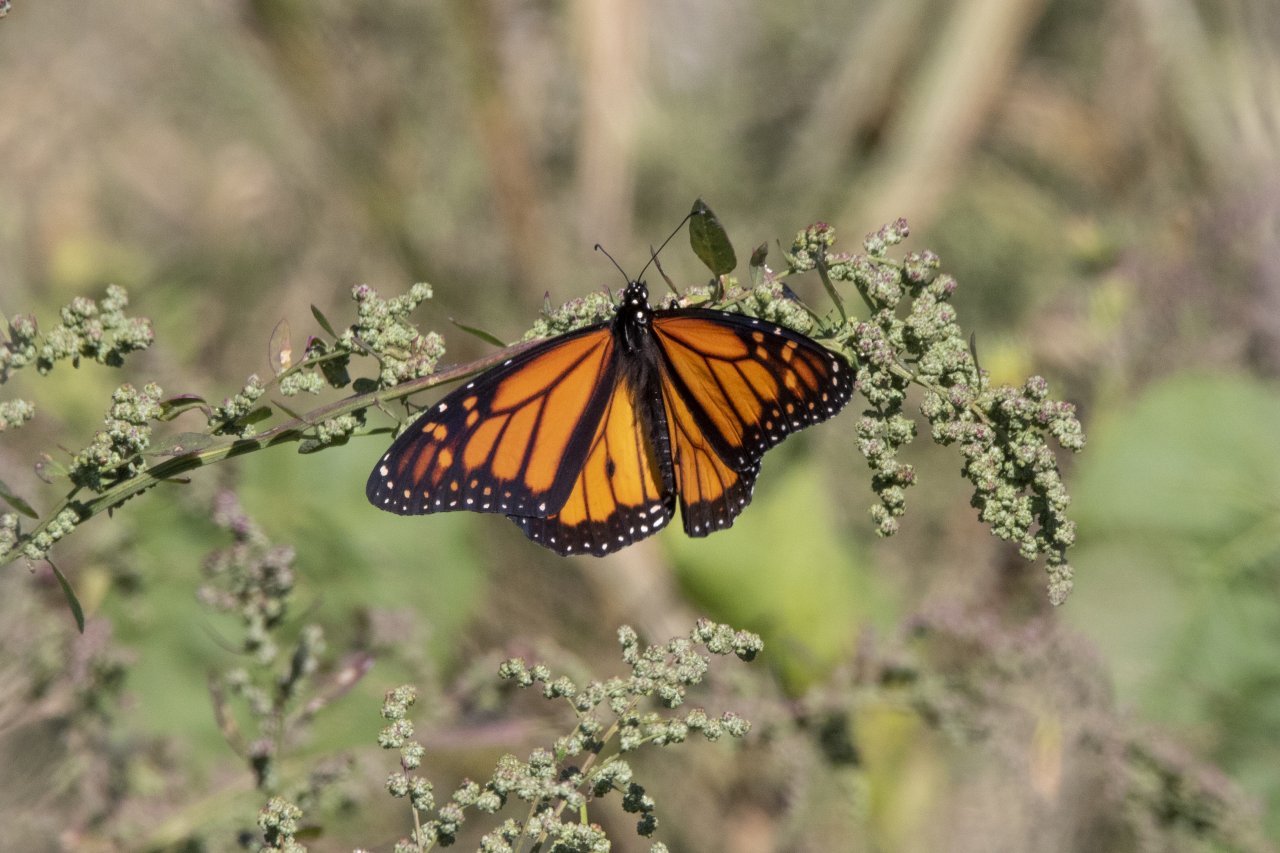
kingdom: Animalia
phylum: Arthropoda
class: Insecta
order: Lepidoptera
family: Nymphalidae
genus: Danaus
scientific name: Danaus plexippus
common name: Monarch
